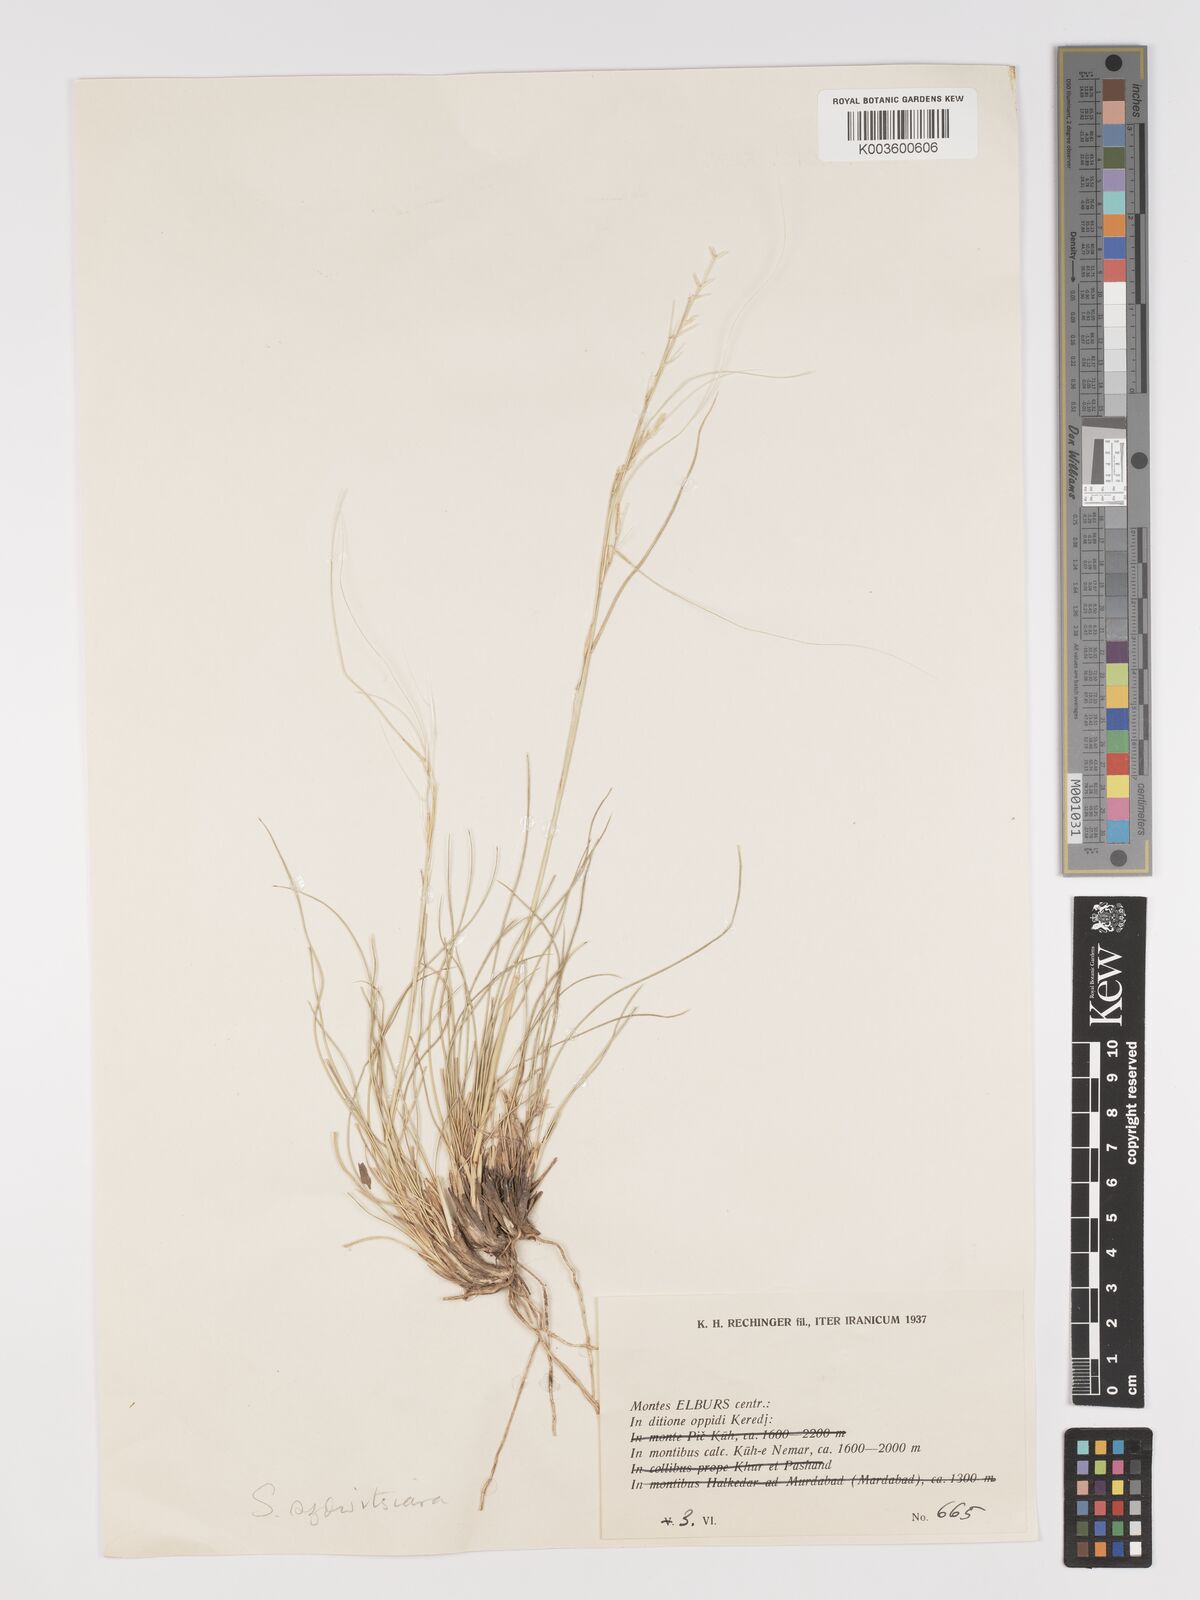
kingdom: Plantae
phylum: Tracheophyta
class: Liliopsida
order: Poales
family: Poaceae
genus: Stipa
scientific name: Stipa barbata
